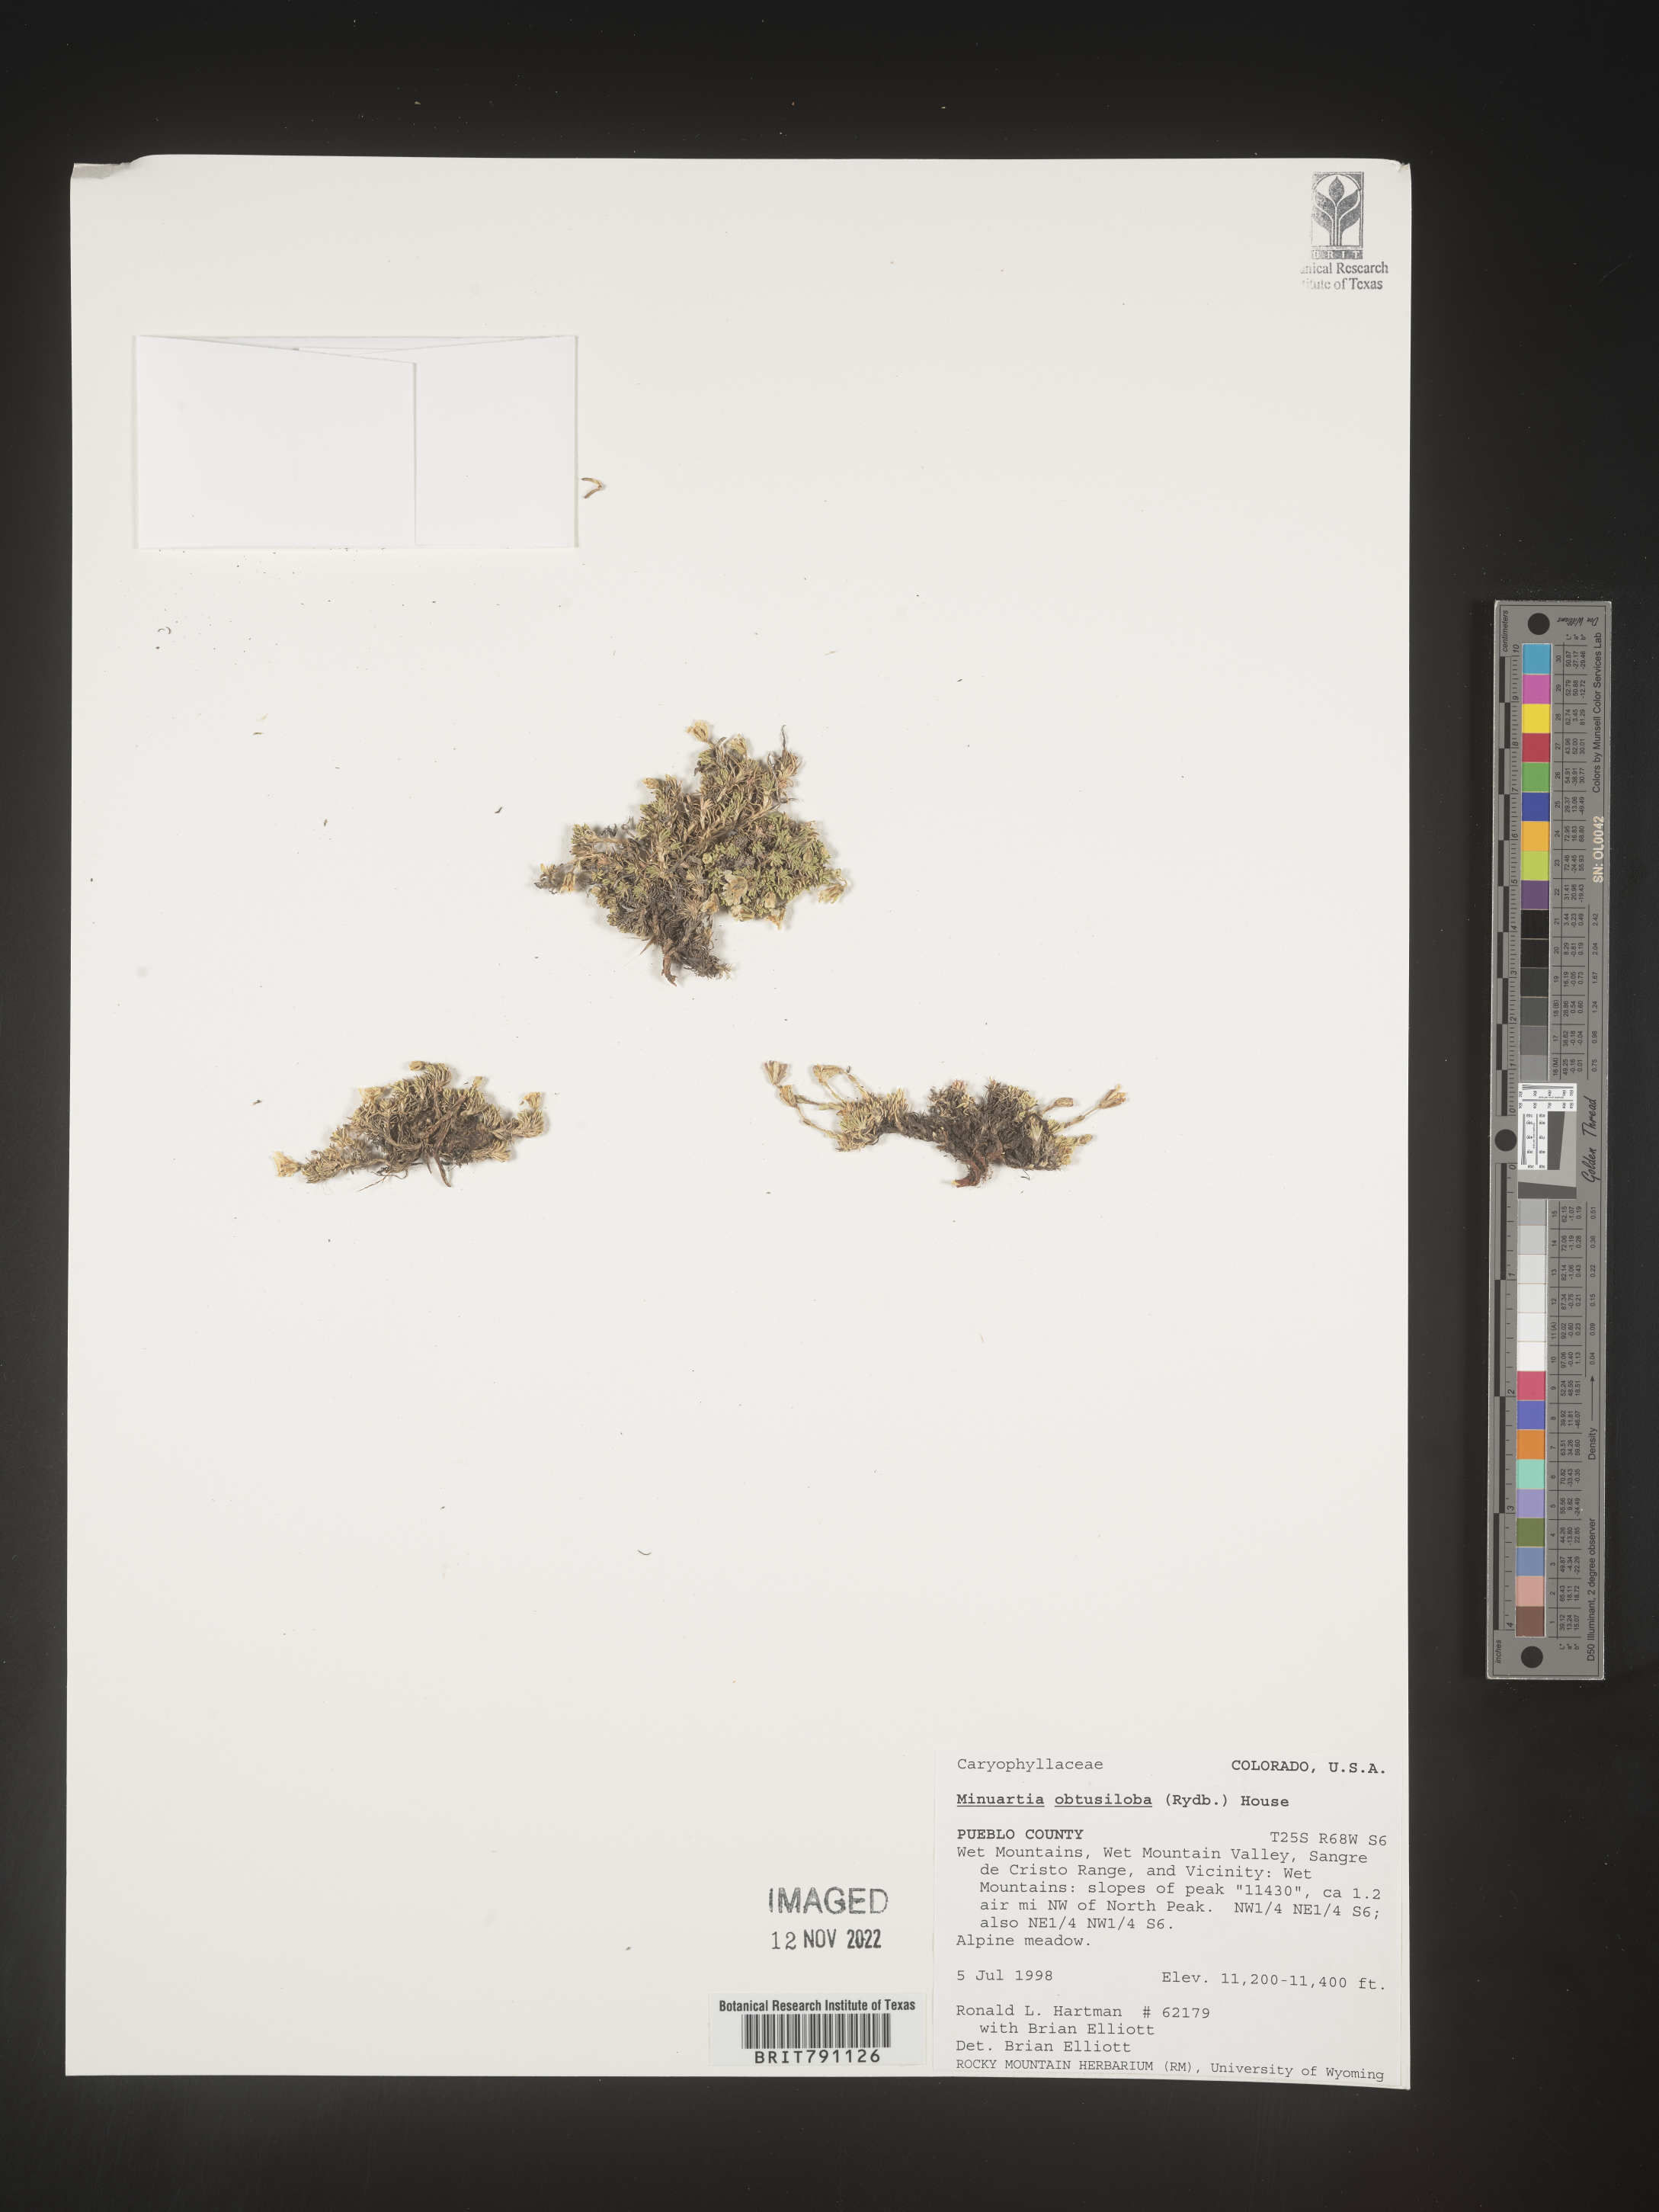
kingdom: Plantae
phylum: Tracheophyta
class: Magnoliopsida
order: Caryophyllales
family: Caryophyllaceae
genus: Cherleria
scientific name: Cherleria obtusiloba
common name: Alpine stitchwort
